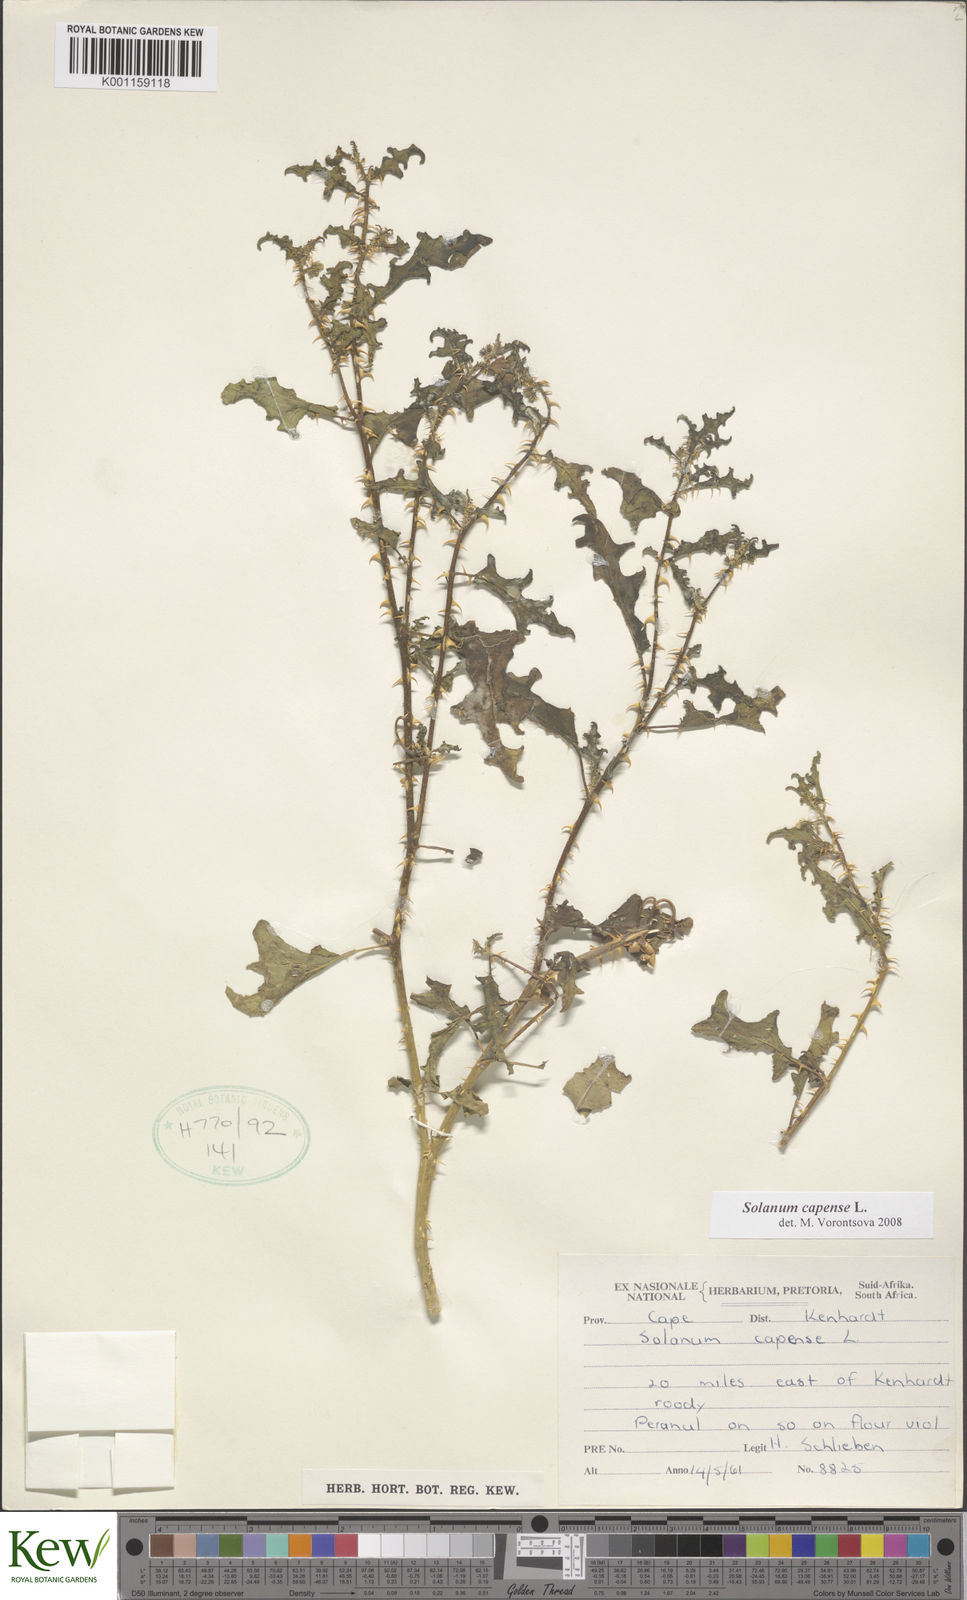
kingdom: Plantae
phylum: Tracheophyta
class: Magnoliopsida
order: Solanales
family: Solanaceae
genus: Solanum
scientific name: Solanum capense
